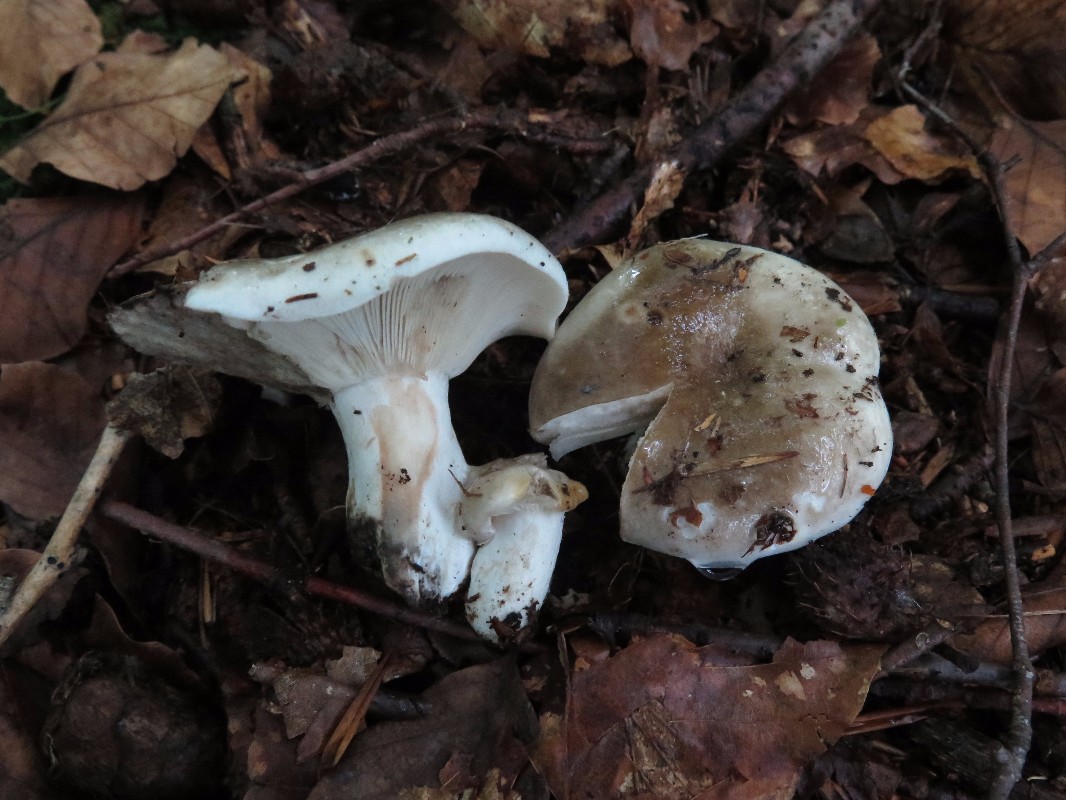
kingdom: Fungi
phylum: Basidiomycota
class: Agaricomycetes
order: Russulales
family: Russulaceae
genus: Russula
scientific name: Russula densifolia
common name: tætbladet skørhat
